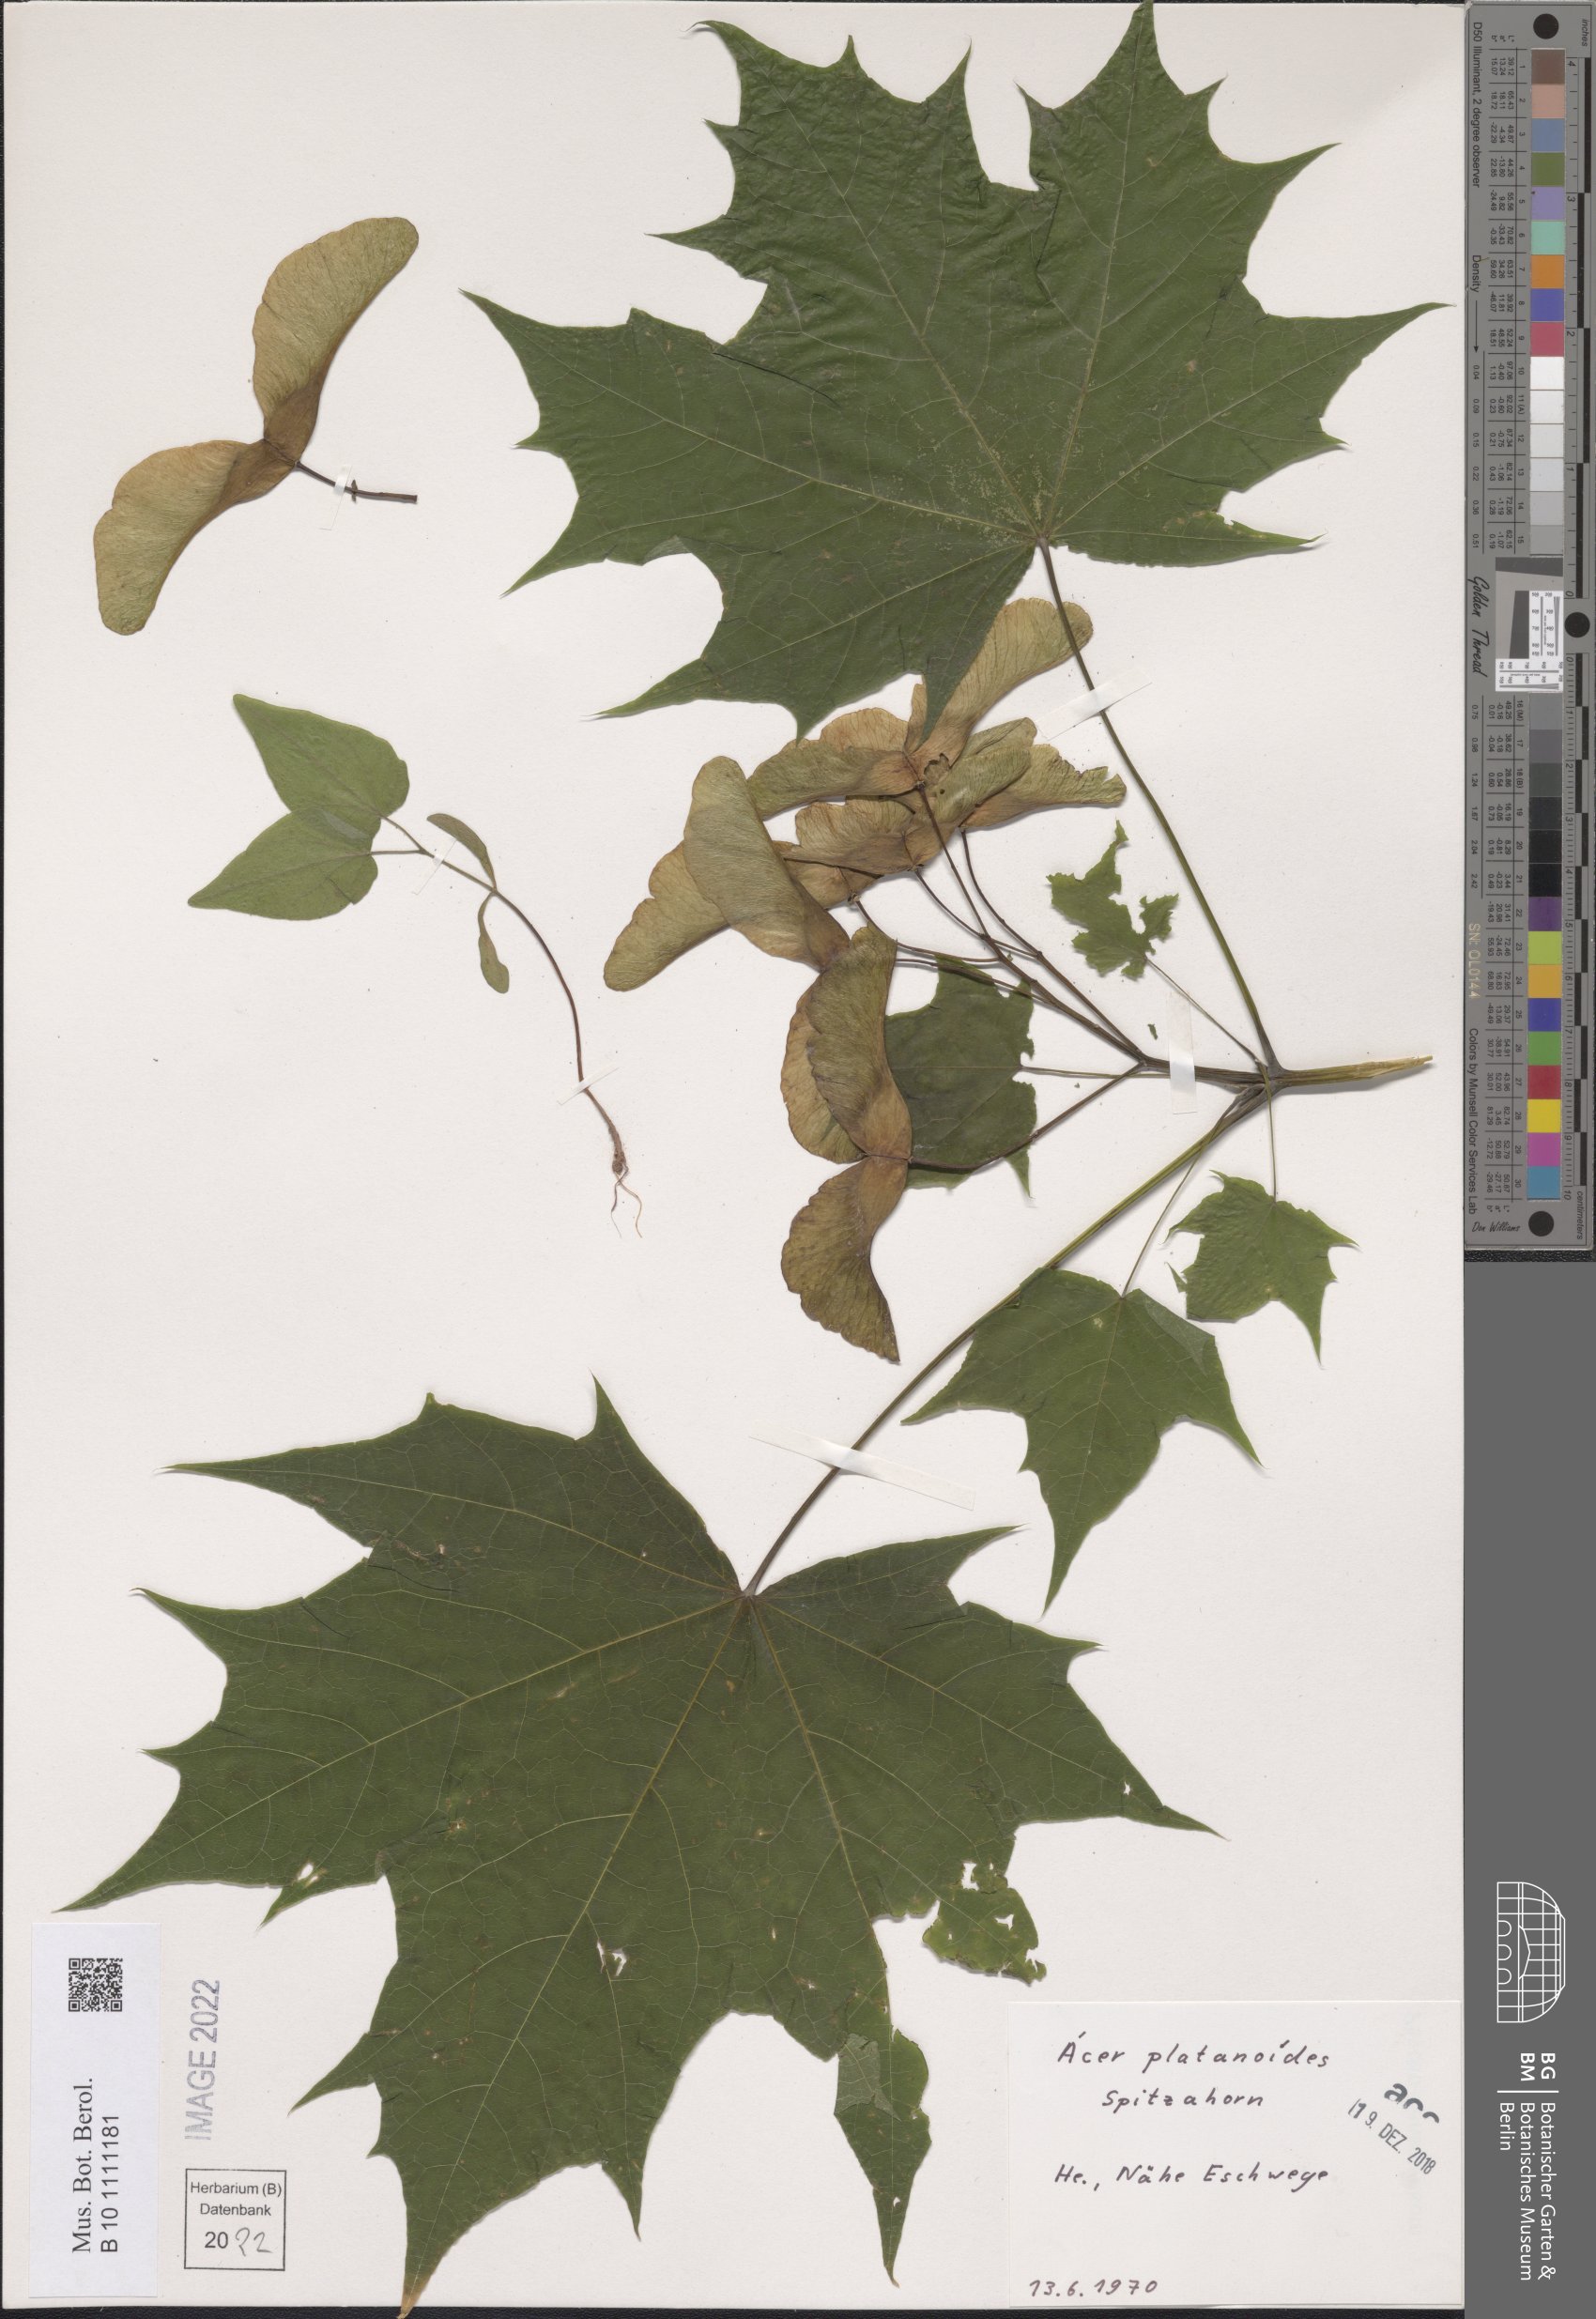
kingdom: Plantae
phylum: Tracheophyta
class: Magnoliopsida
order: Sapindales
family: Sapindaceae
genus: Acer
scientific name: Acer platanoides
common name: Norway maple
